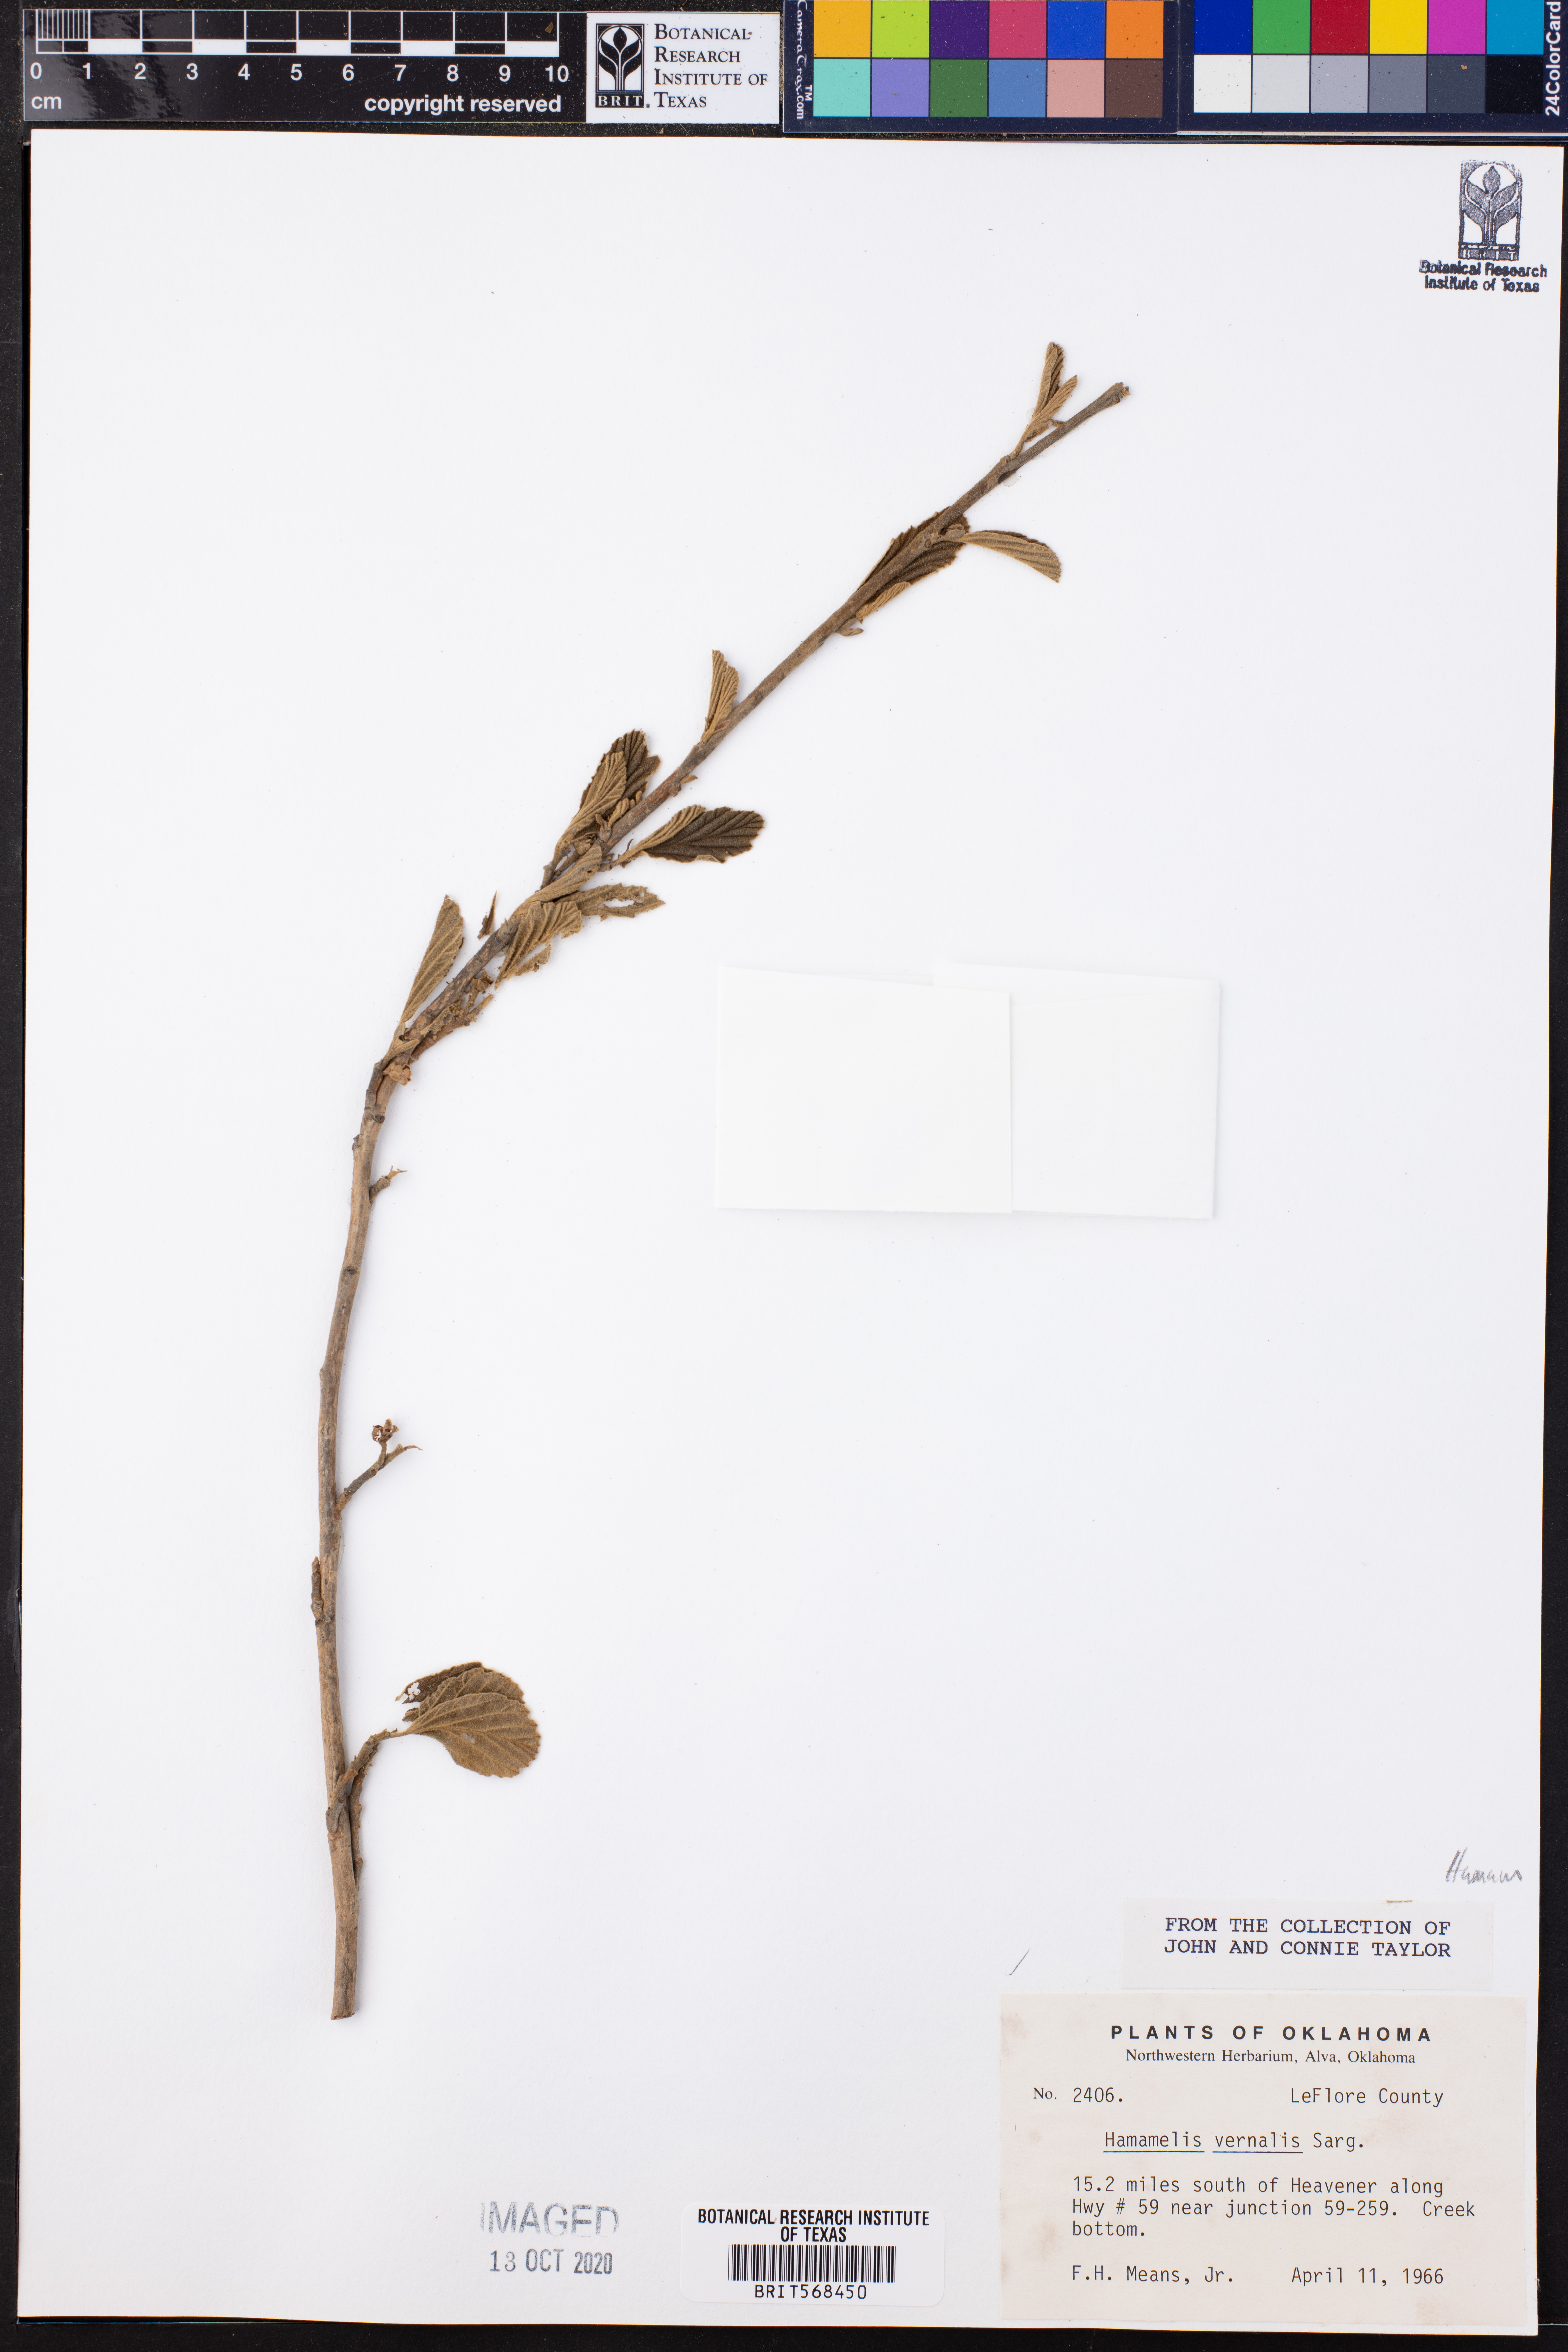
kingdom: Plantae
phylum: Tracheophyta
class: Magnoliopsida
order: Saxifragales
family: Hamamelidaceae
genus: Hamamelis
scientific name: Hamamelis vernalis
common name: Ozark witch-hazel
